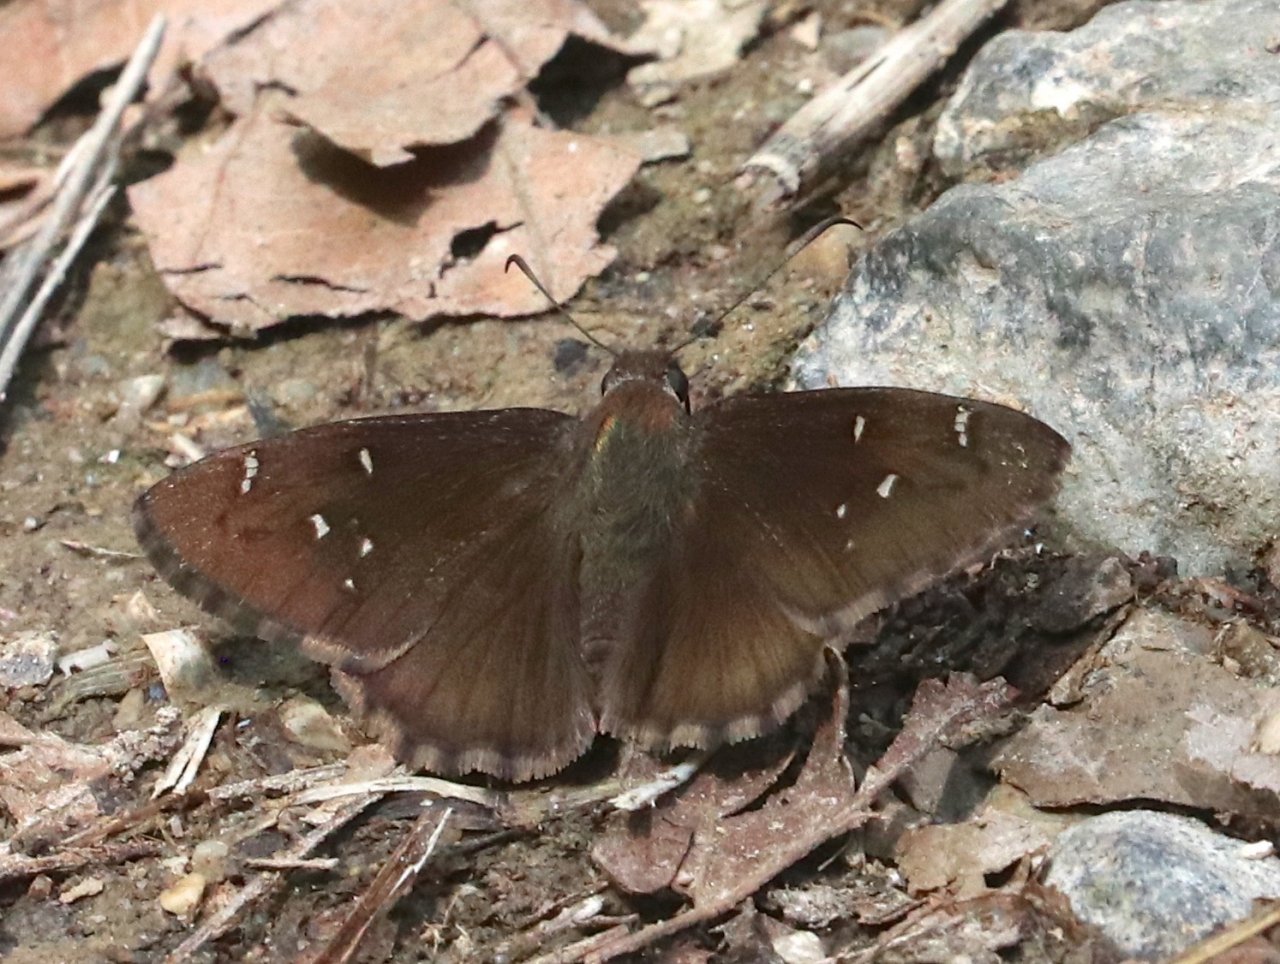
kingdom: Animalia
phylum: Arthropoda
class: Insecta
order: Lepidoptera
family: Hesperiidae
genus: Autochton
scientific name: Autochton
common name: Northern Cloudywing
